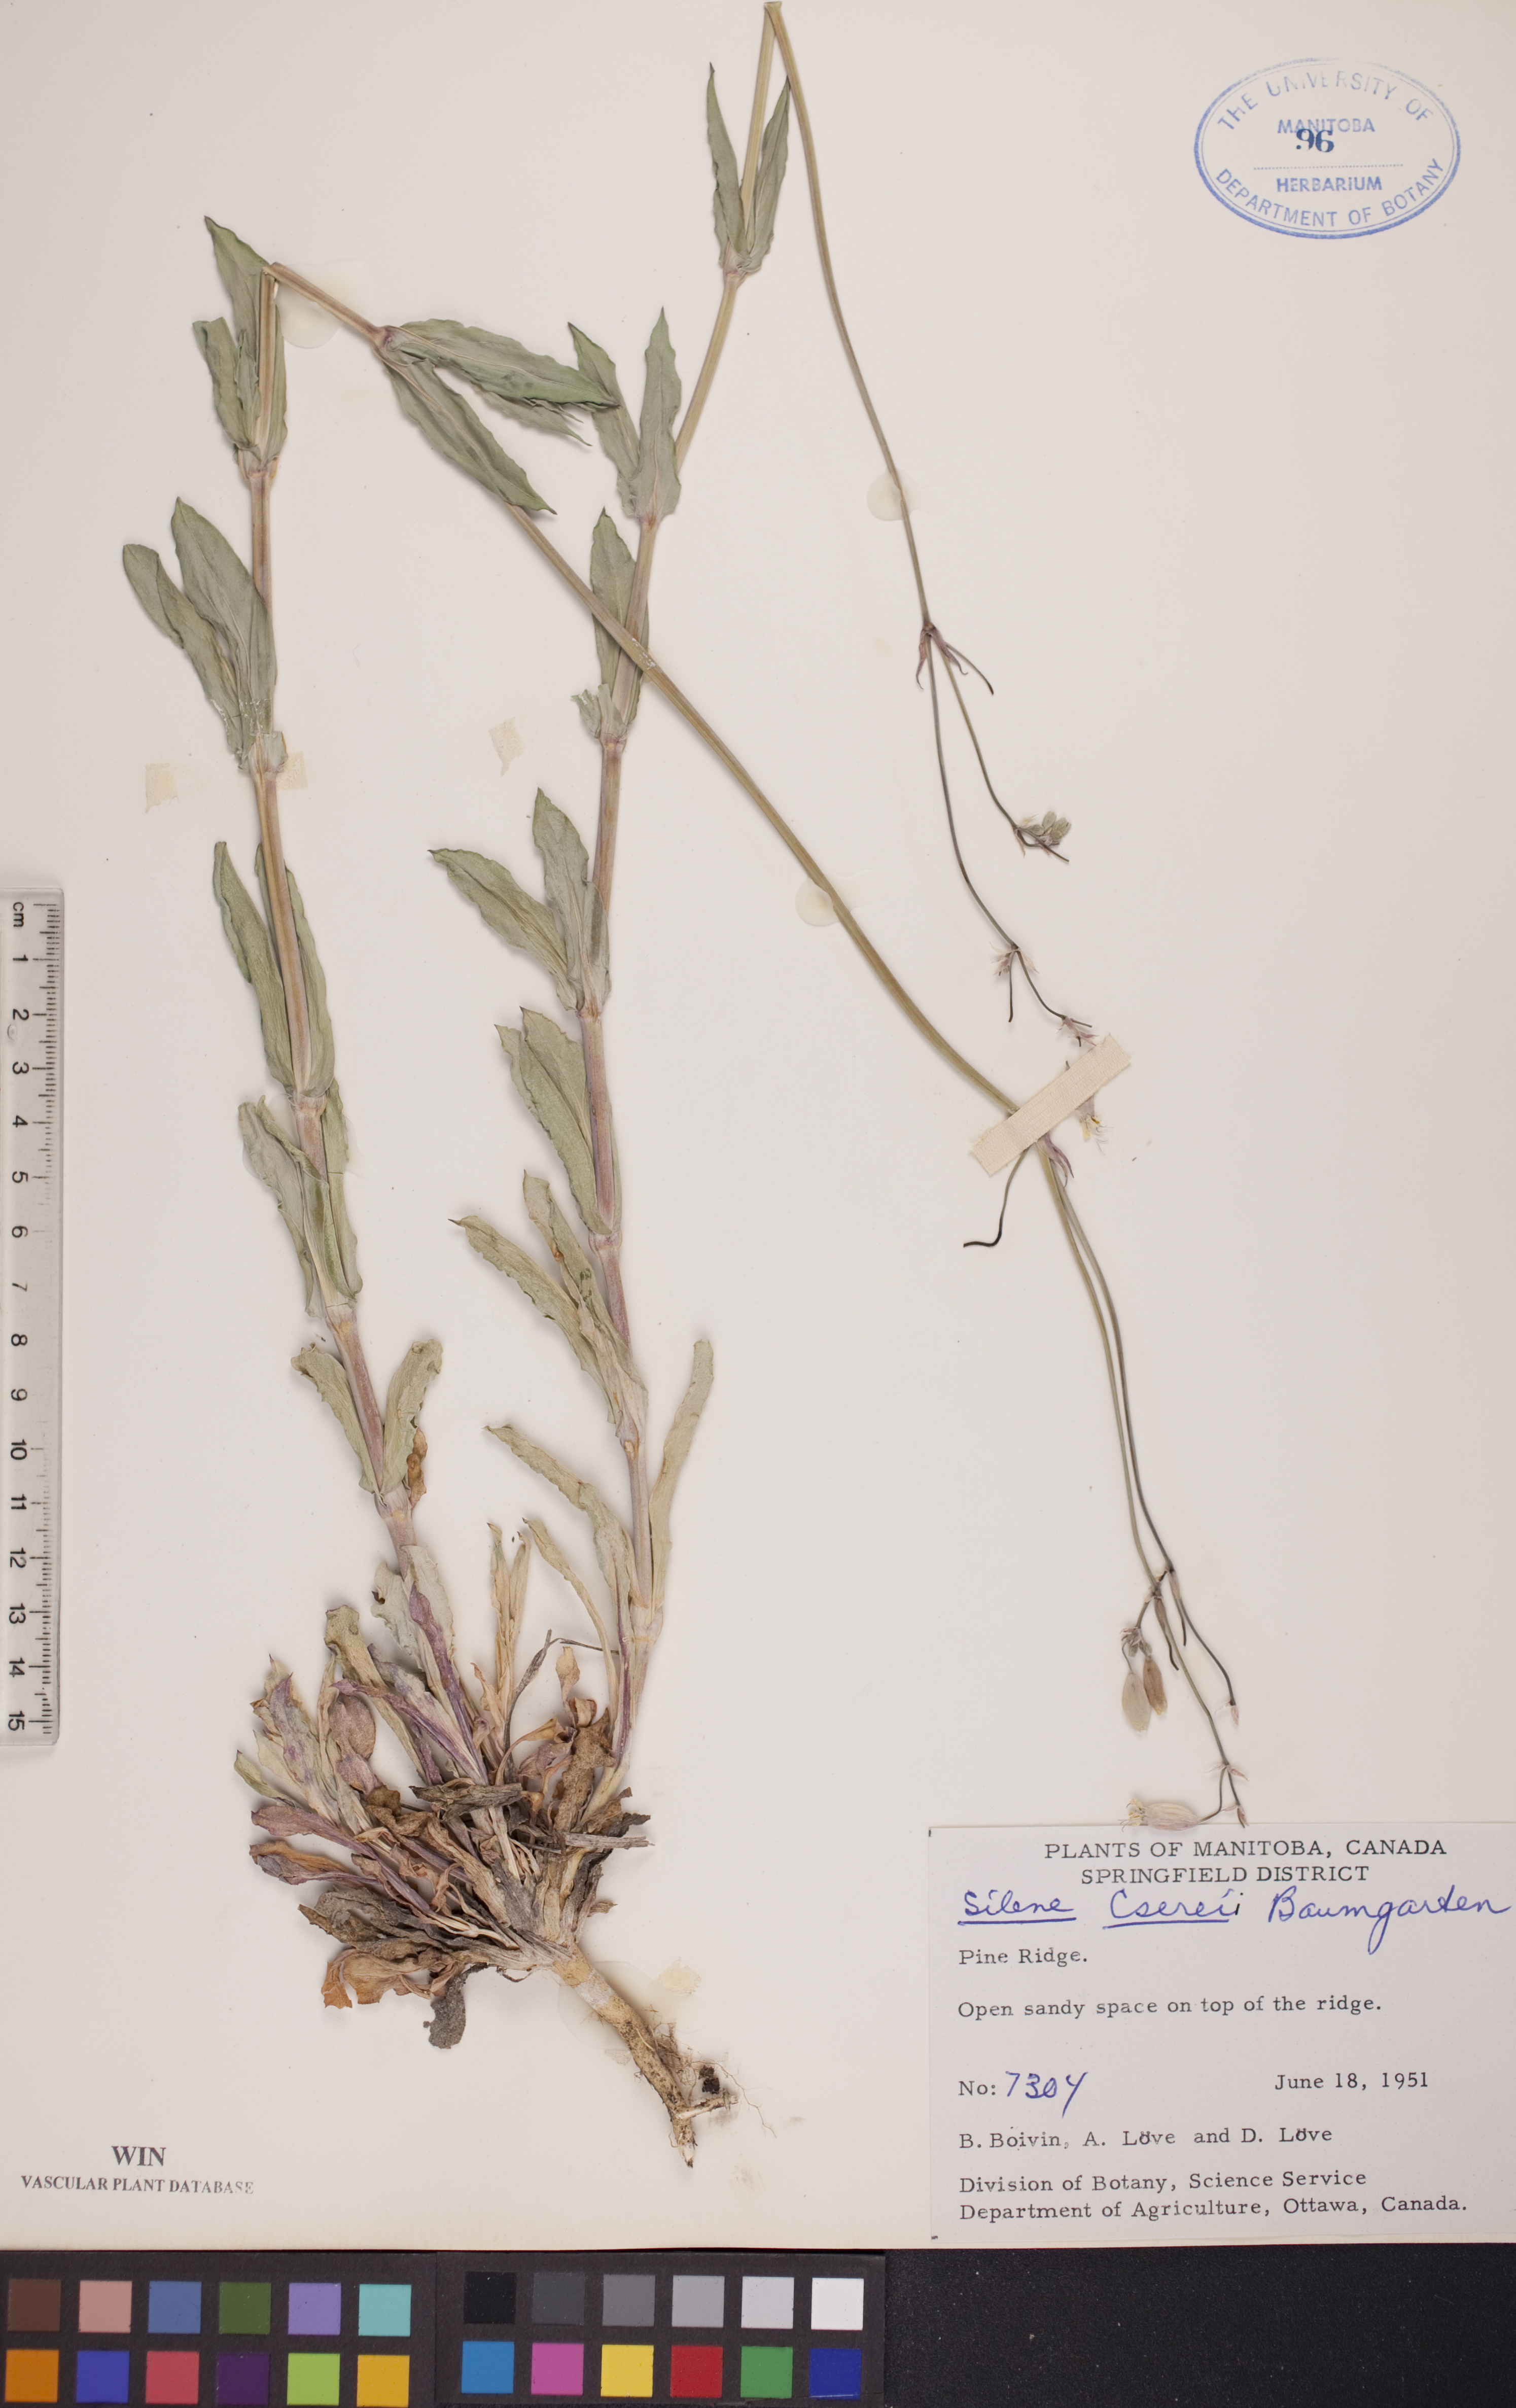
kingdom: Plantae
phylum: Tracheophyta
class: Magnoliopsida
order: Caryophyllales
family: Caryophyllaceae
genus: Silene
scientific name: Silene csereii
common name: Balkan catchfly
